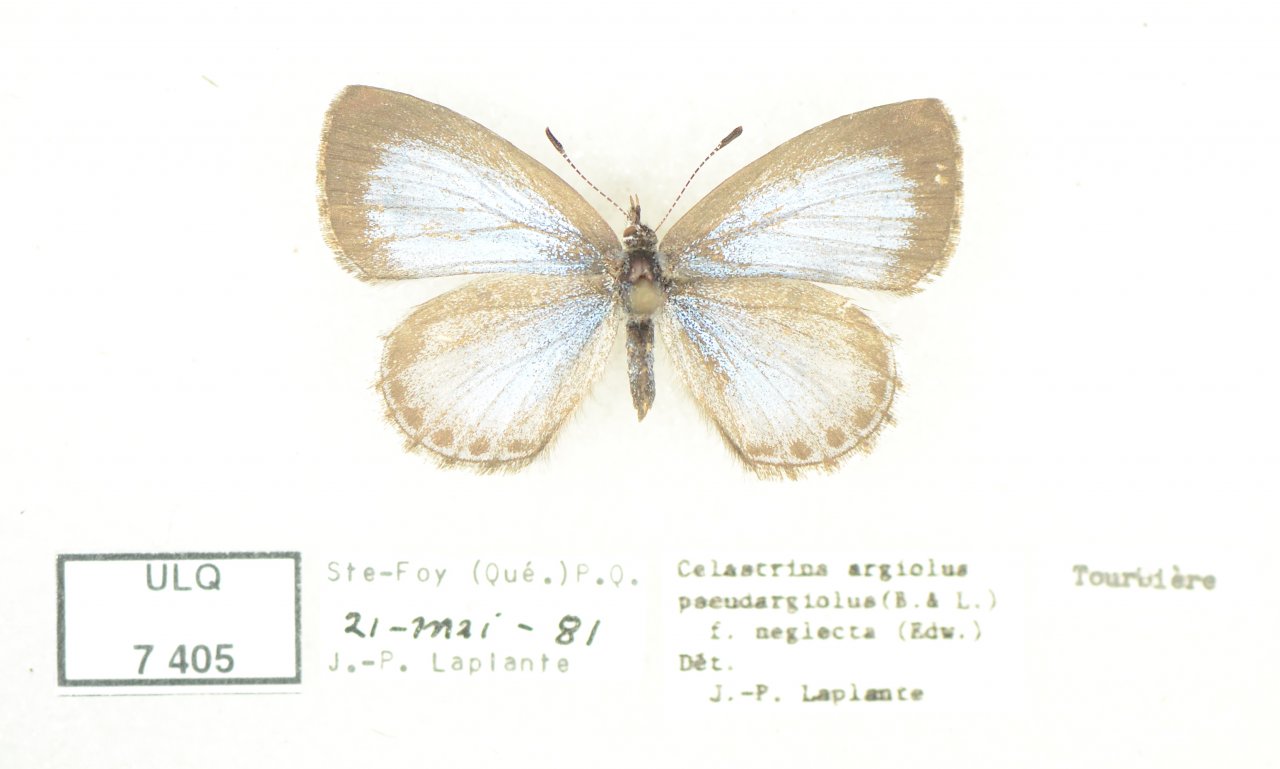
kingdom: Animalia
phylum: Arthropoda
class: Insecta
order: Lepidoptera
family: Lycaenidae
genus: Celastrina
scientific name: Celastrina lucia
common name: Northern Spring Azure
